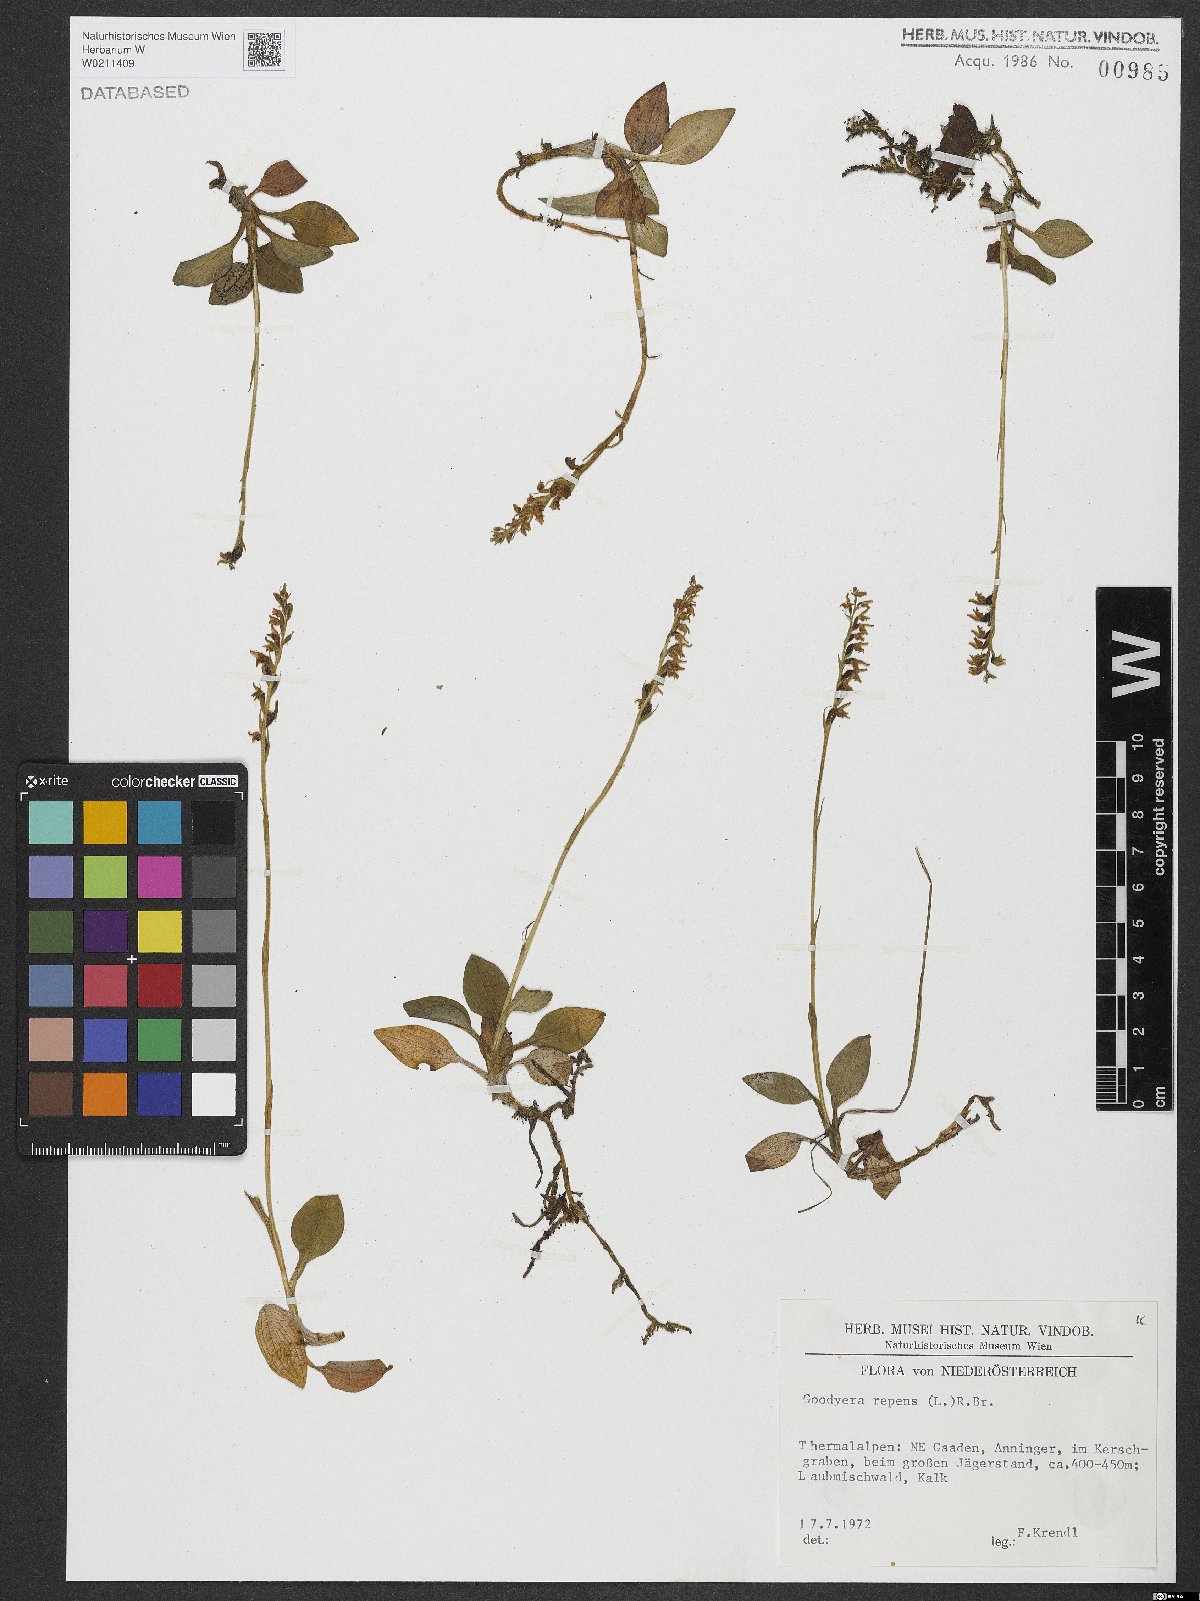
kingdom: Plantae
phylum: Tracheophyta
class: Liliopsida
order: Asparagales
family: Orchidaceae
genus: Goodyera
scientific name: Goodyera repens
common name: Creeping lady's-tresses
